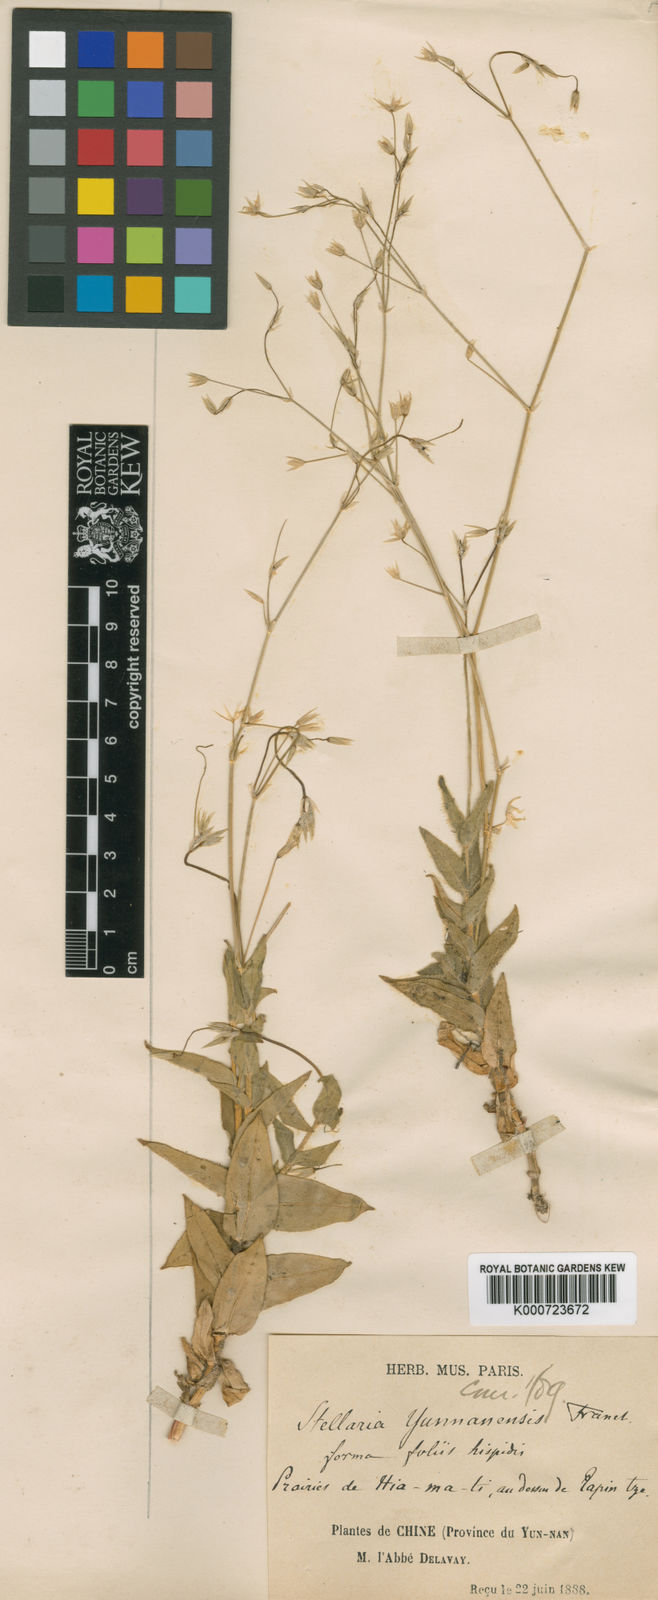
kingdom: Plantae
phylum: Tracheophyta
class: Magnoliopsida
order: Caryophyllales
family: Caryophyllaceae
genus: Stellaria
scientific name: Stellaria yunnanensis
